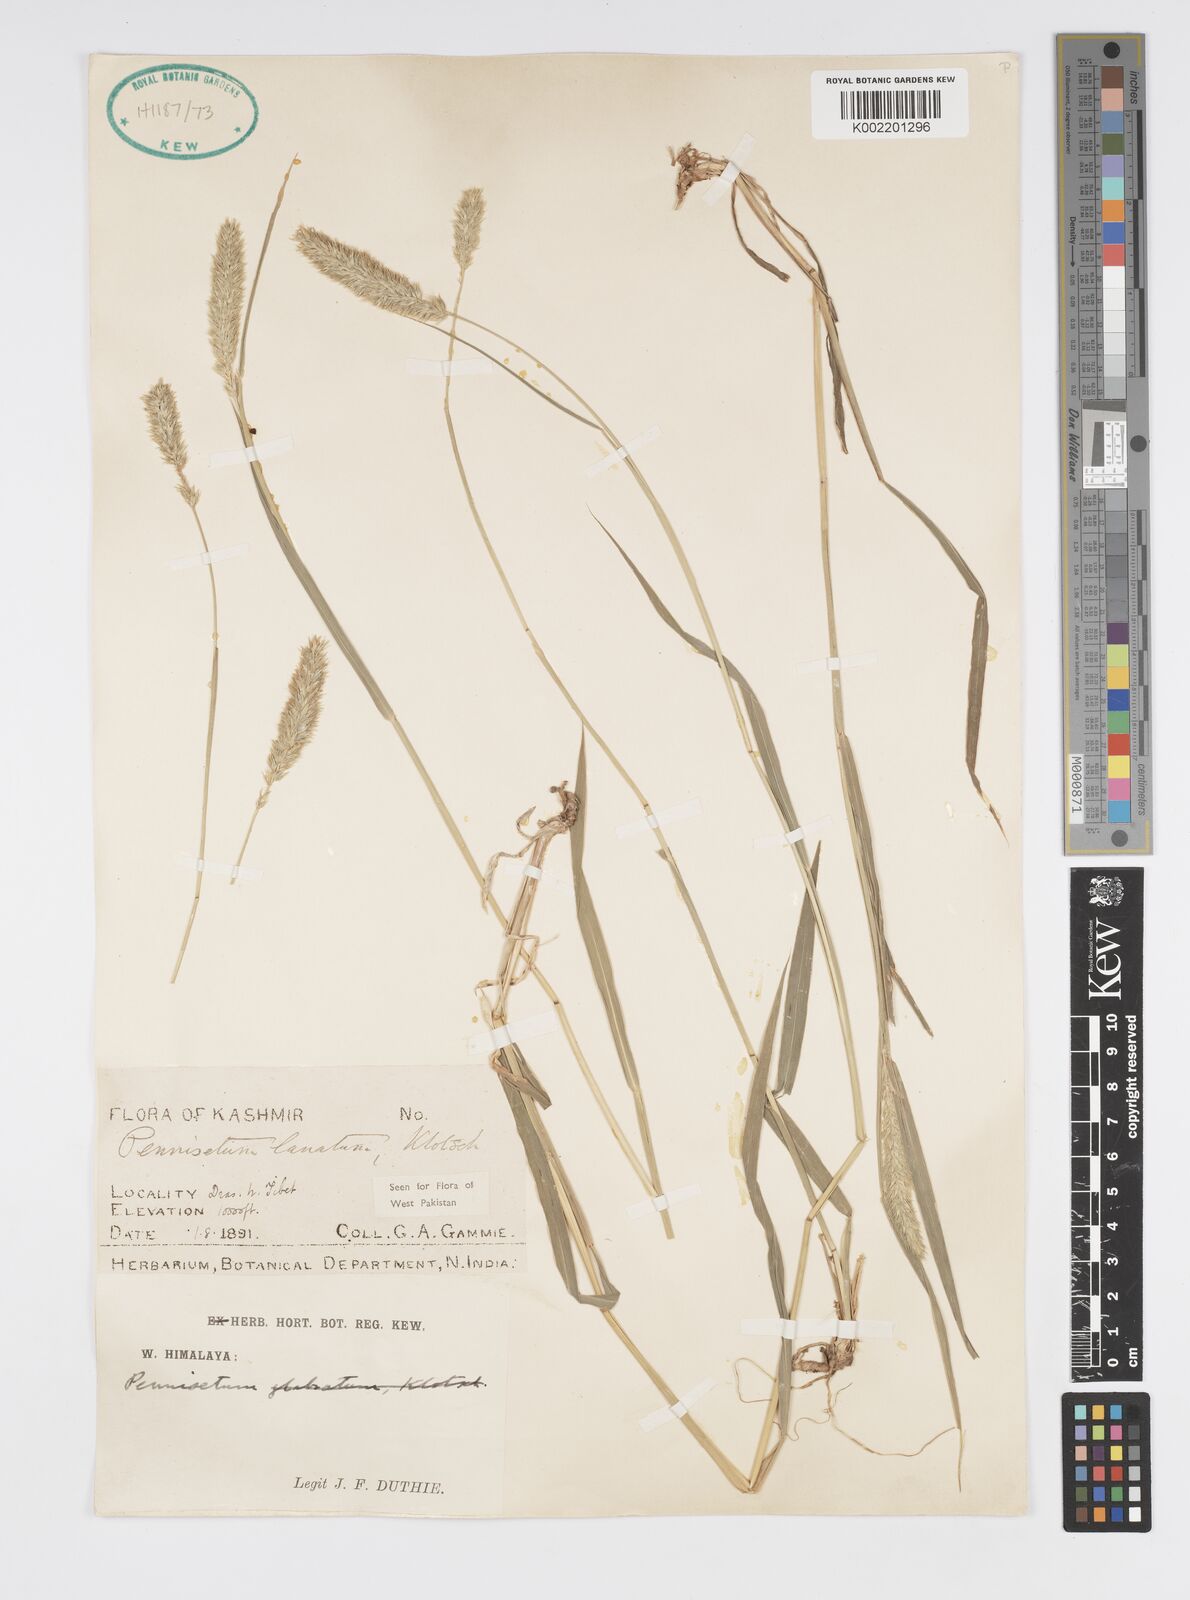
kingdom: Plantae
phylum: Tracheophyta
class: Liliopsida
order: Poales
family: Poaceae
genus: Cenchrus
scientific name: Cenchrus lanatus
